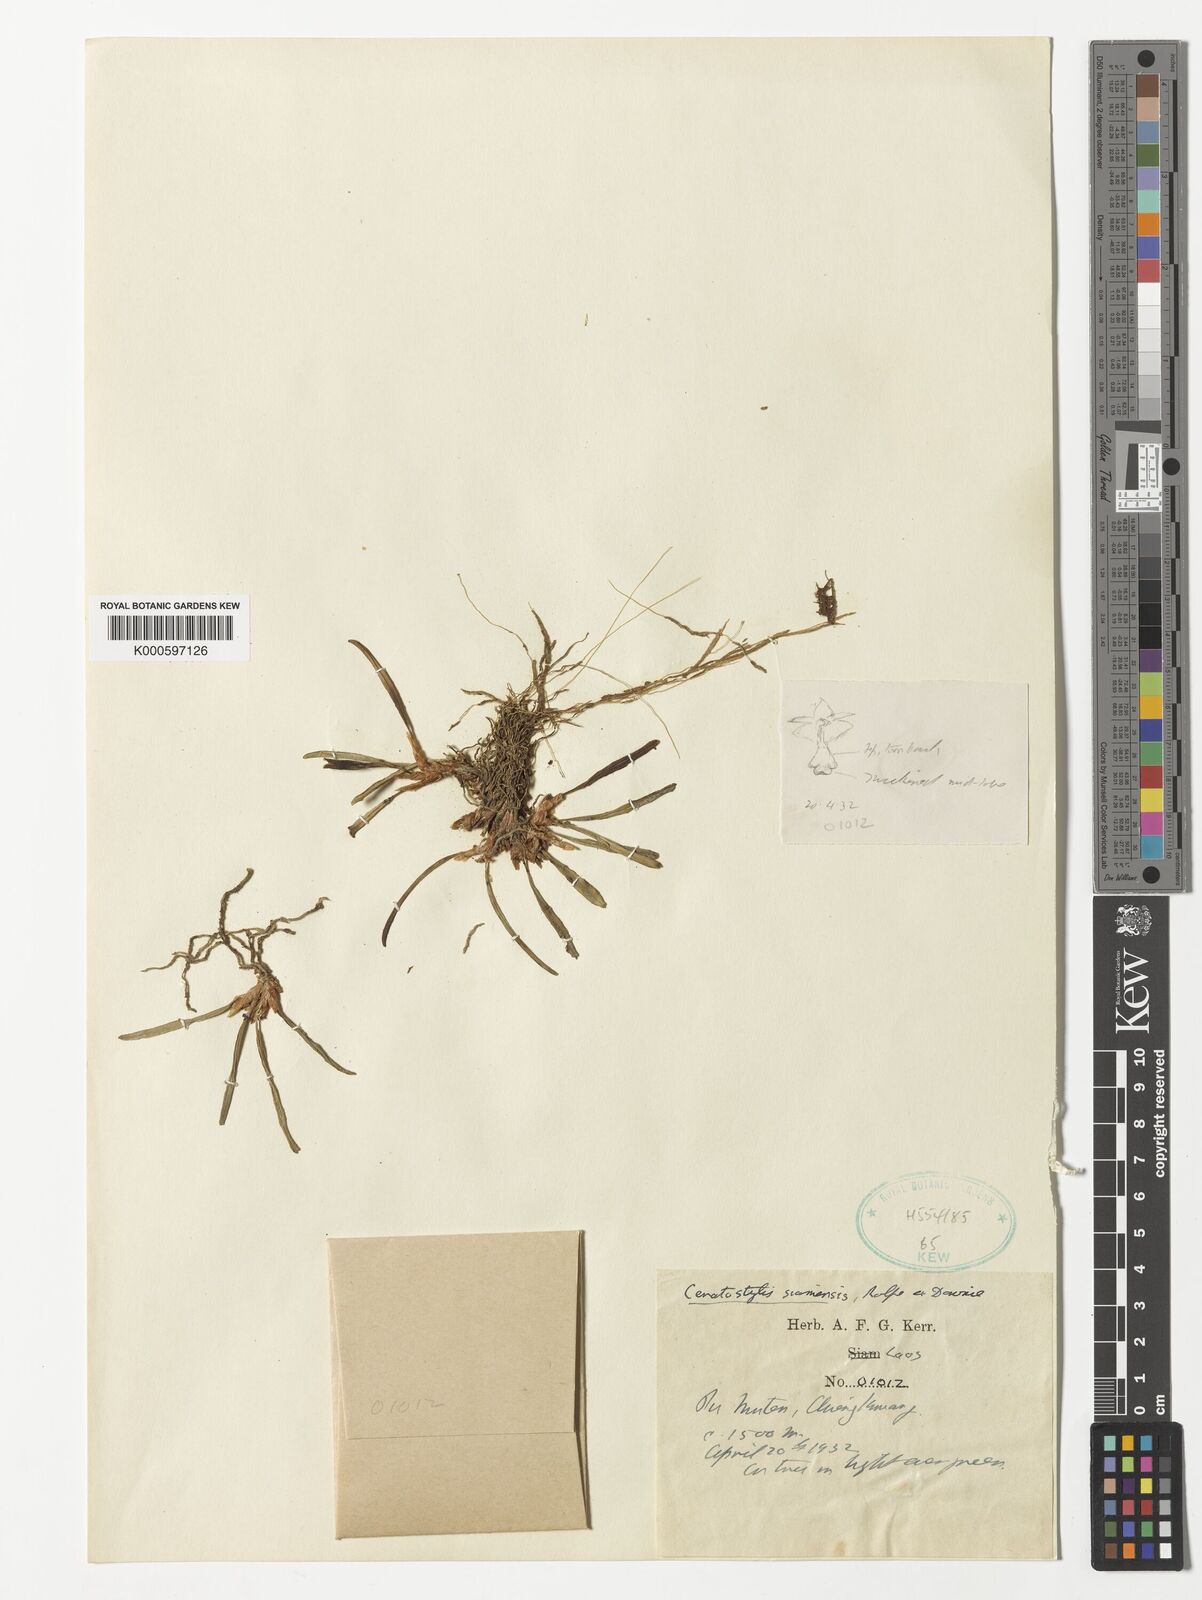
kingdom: Plantae
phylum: Tracheophyta
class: Liliopsida
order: Asparagales
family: Orchidaceae
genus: Ceratostylis
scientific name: Ceratostylis siamensis
